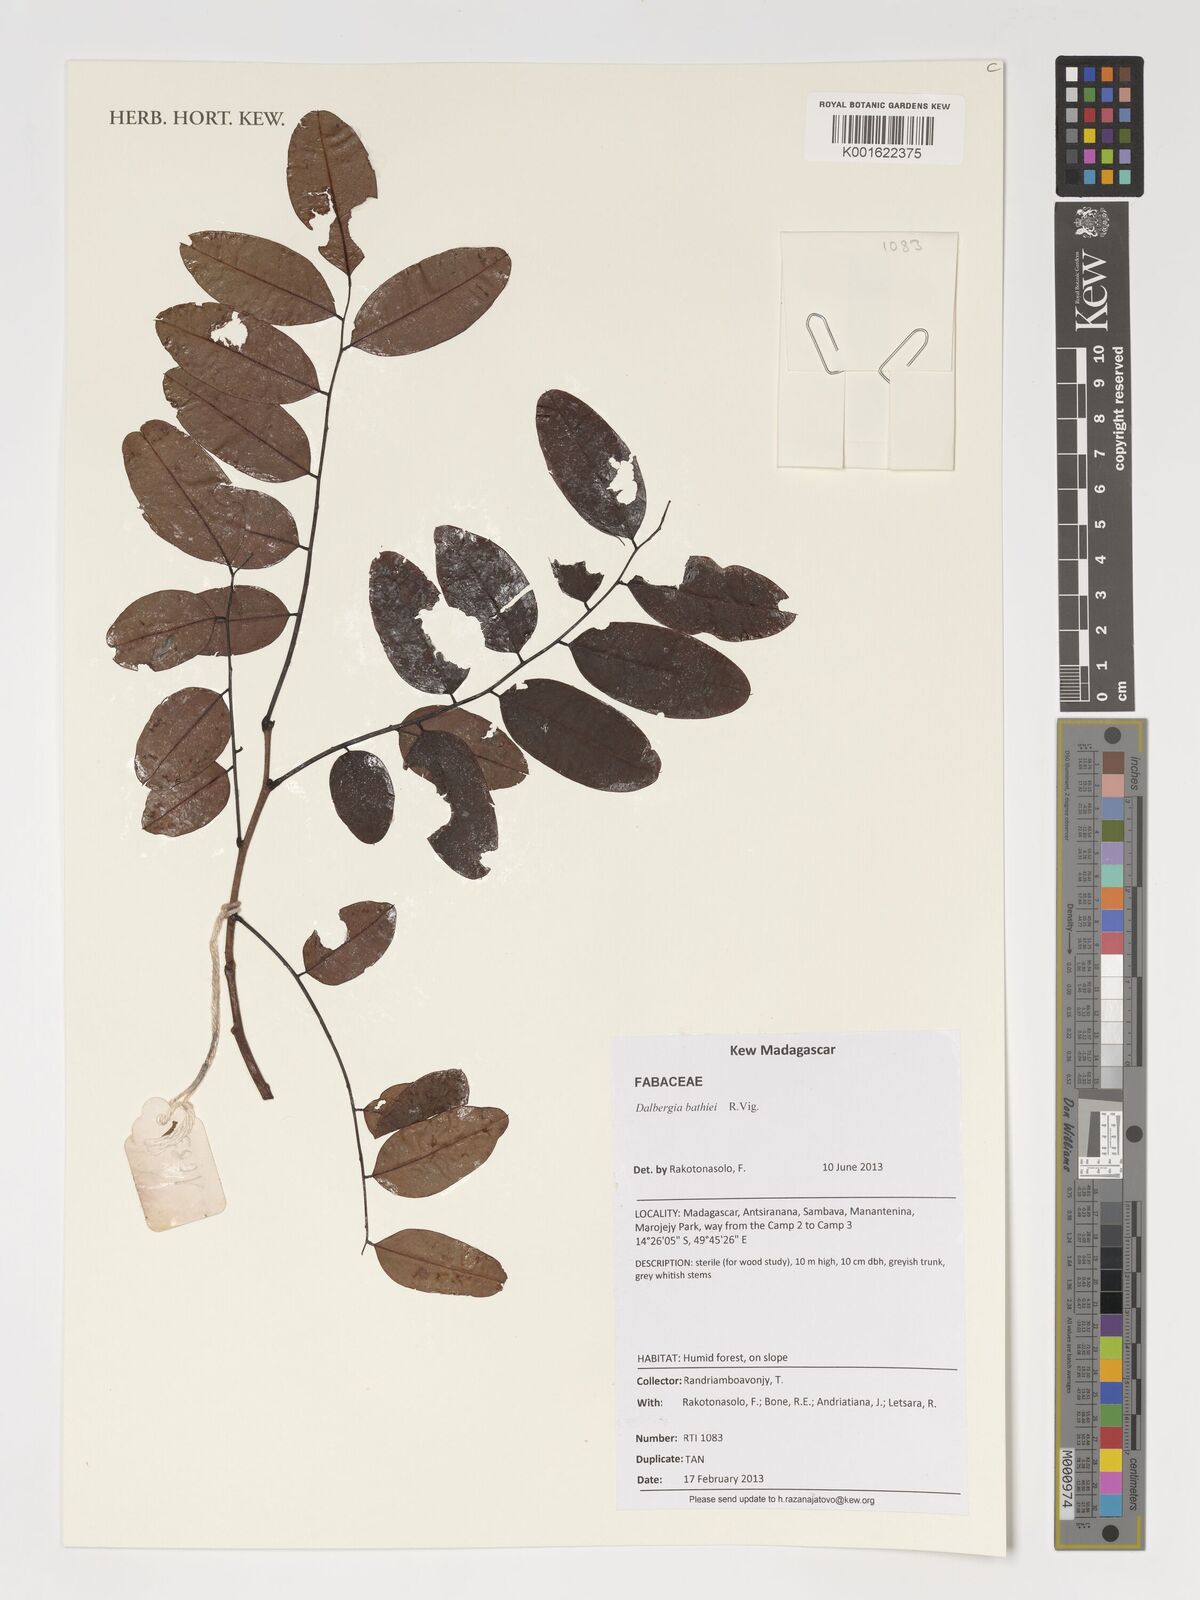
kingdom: Plantae
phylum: Tracheophyta
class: Magnoliopsida
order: Fabales
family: Fabaceae
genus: Dalbergia
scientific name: Dalbergia bathiei
